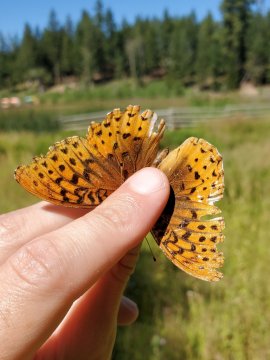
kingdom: Animalia
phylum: Arthropoda
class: Insecta
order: Lepidoptera
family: Nymphalidae
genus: Speyeria
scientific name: Speyeria cybele
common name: Great Spangled Fritillary
